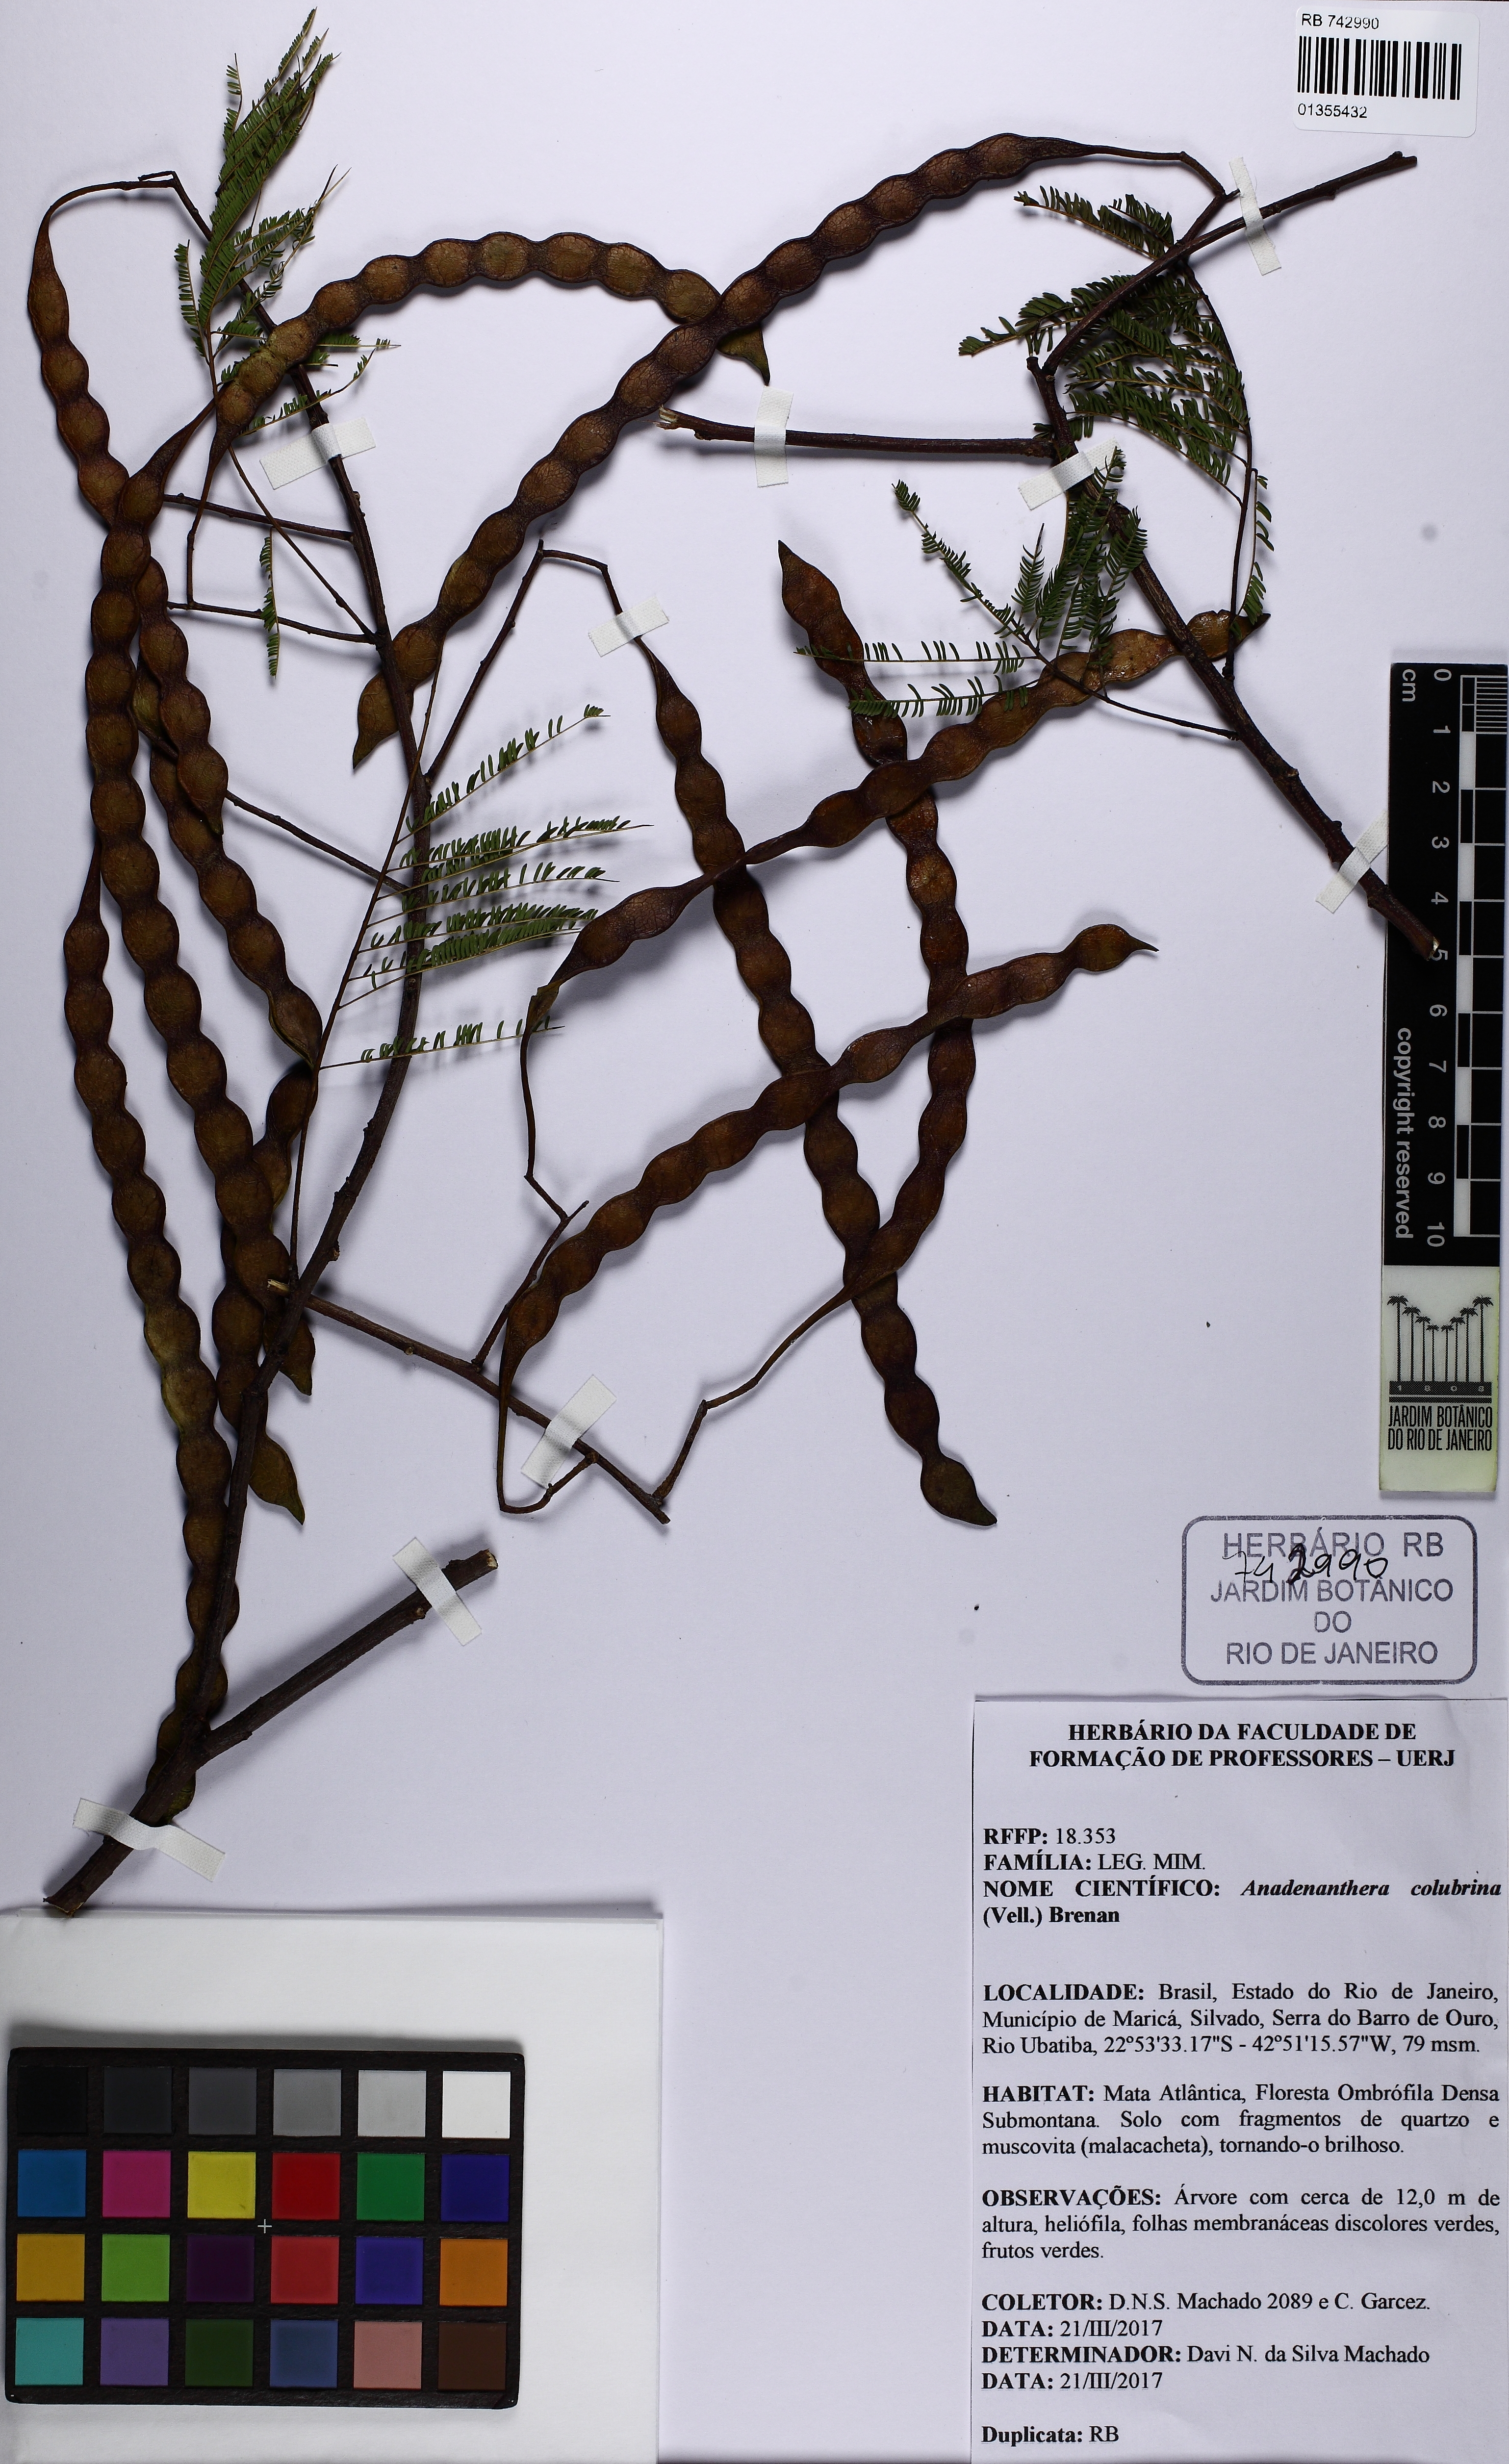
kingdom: Plantae
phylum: Tracheophyta
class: Magnoliopsida
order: Fabales
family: Fabaceae
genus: Anadenanthera
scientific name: Anadenanthera colubrina
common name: Curupay
